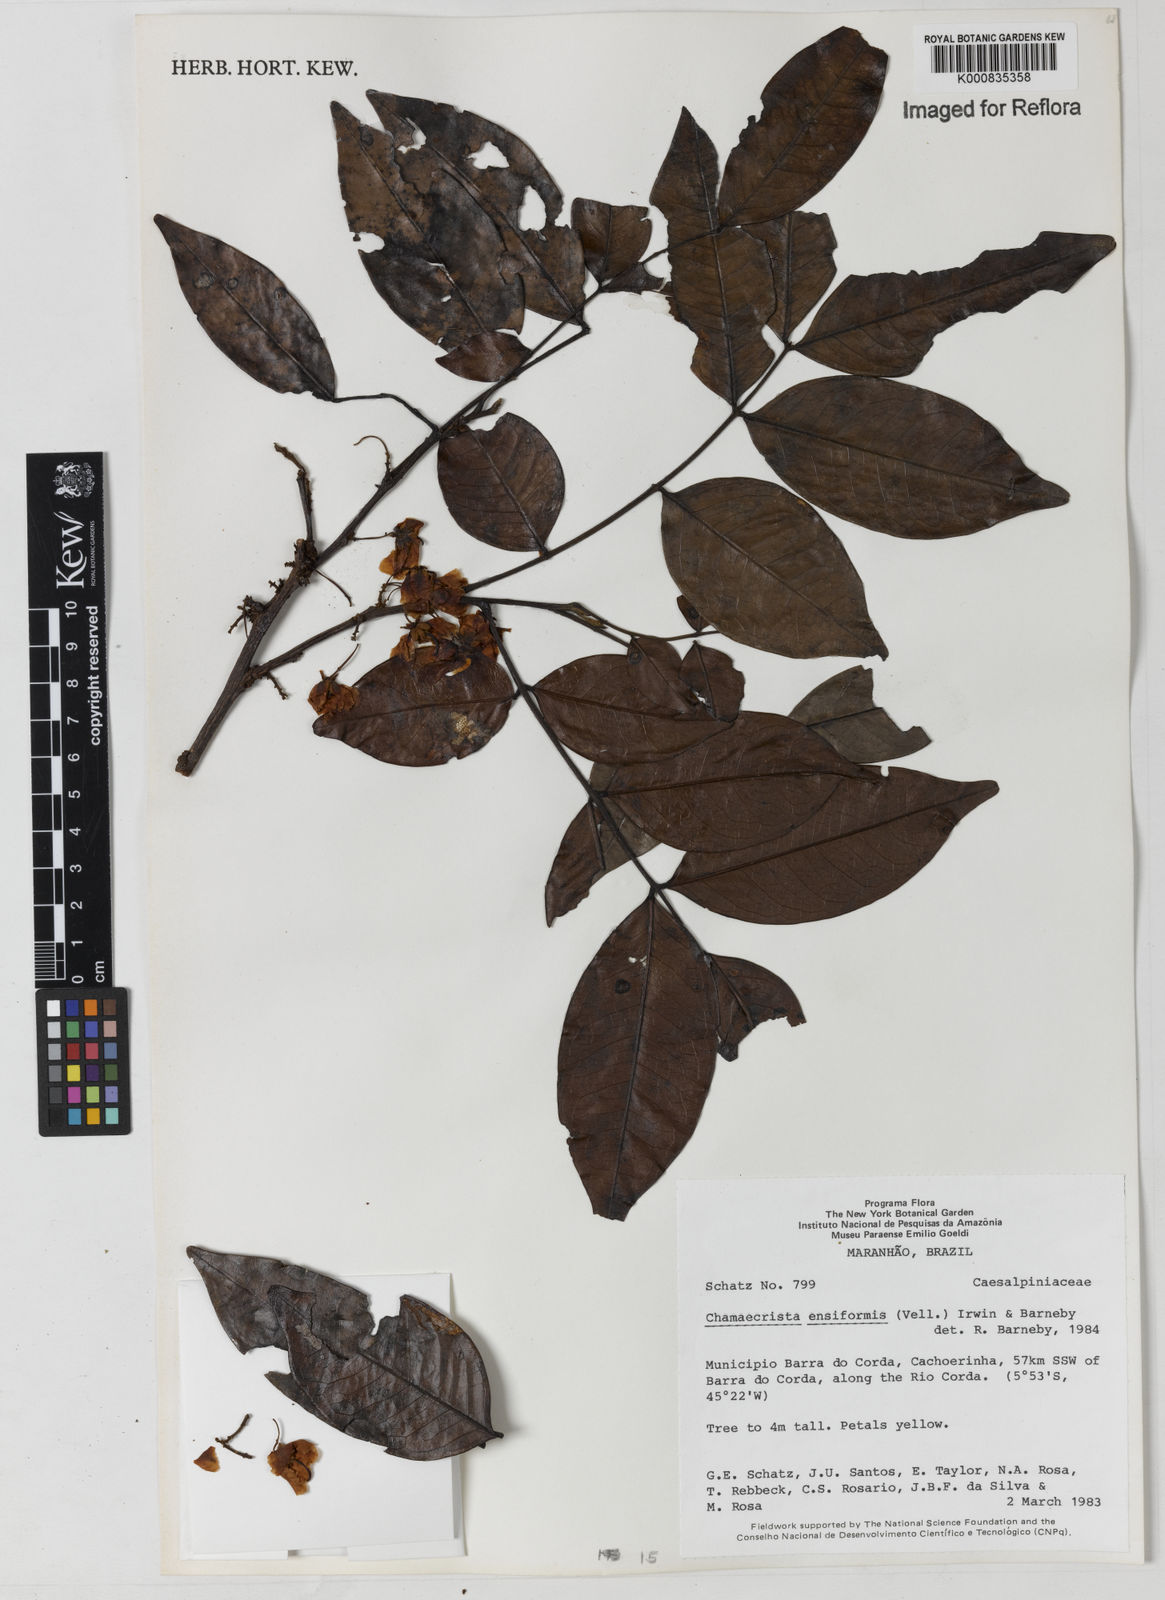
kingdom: Plantae
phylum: Tracheophyta
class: Magnoliopsida
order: Fabales
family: Fabaceae
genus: Chamaecrista
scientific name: Chamaecrista ensiformis
